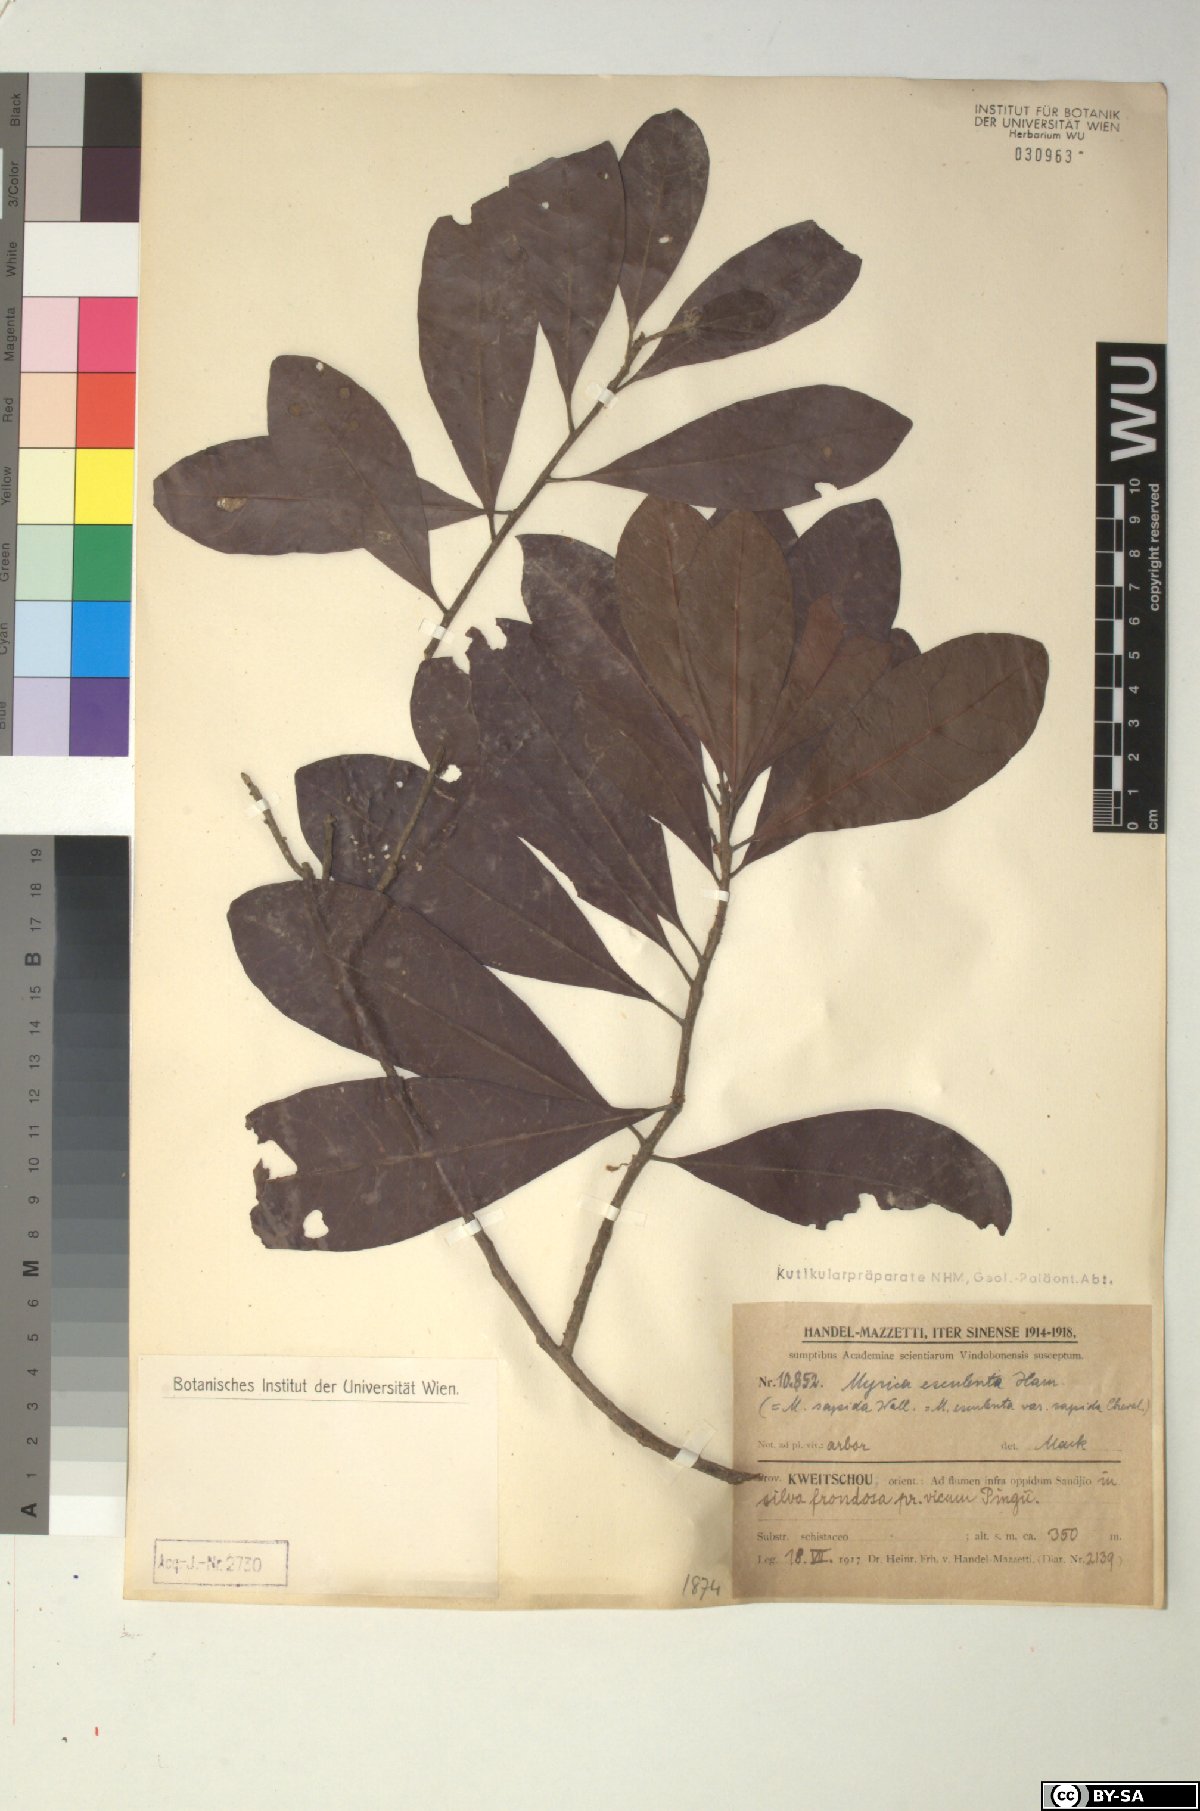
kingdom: Plantae
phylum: Tracheophyta
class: Magnoliopsida
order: Fagales
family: Myricaceae
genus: Morella
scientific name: Morella esculenta
